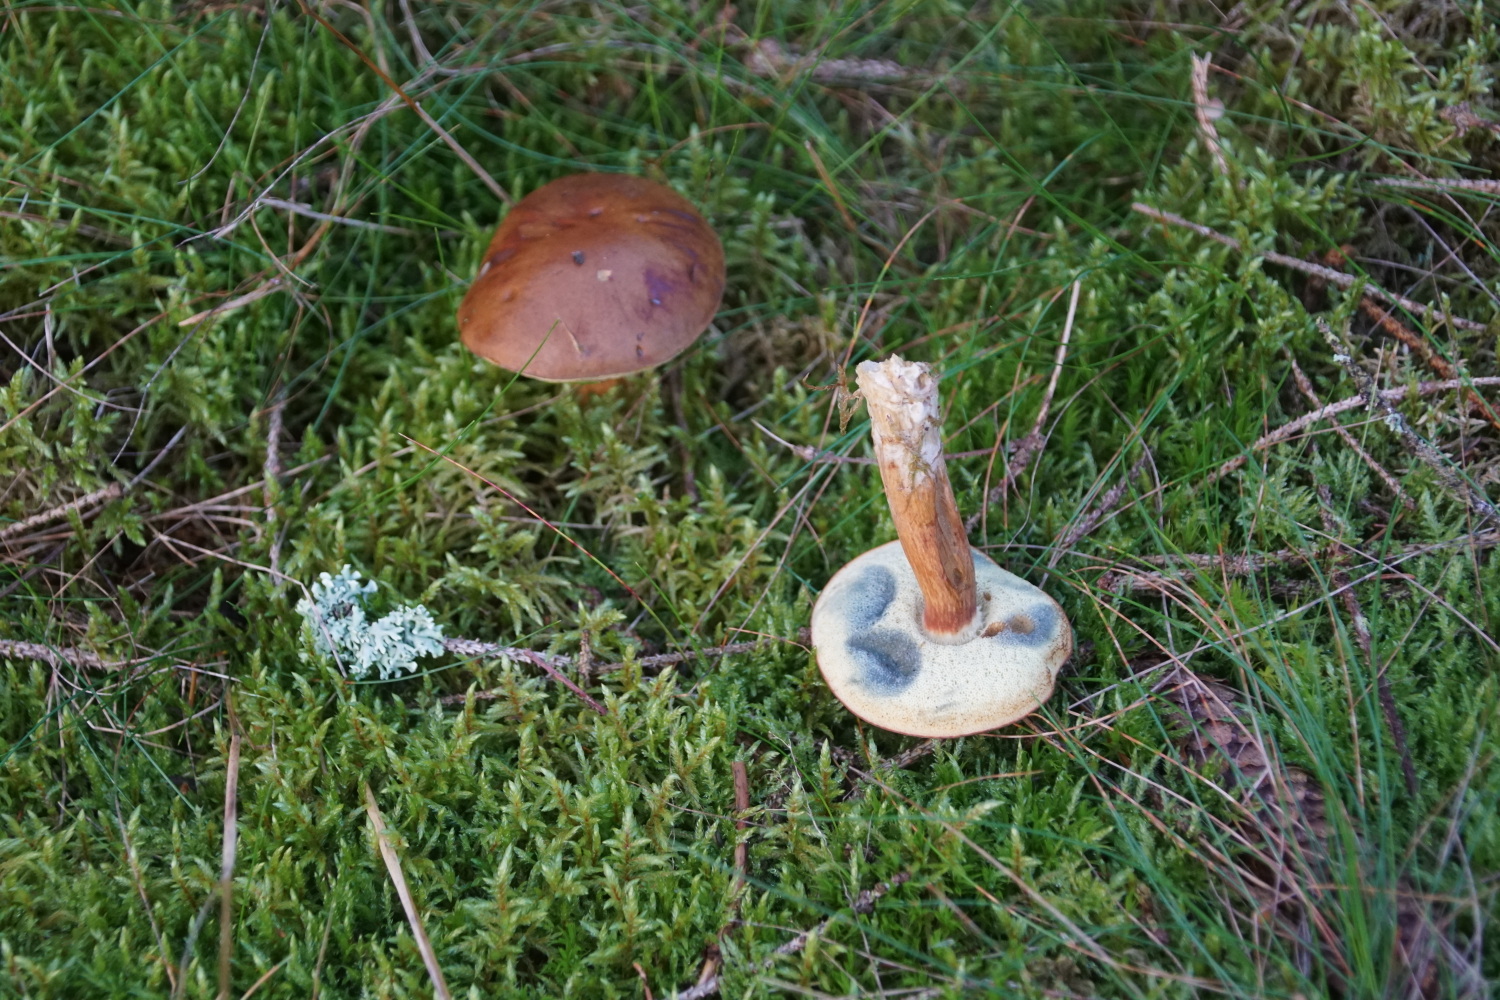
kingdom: Fungi
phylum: Basidiomycota
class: Agaricomycetes
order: Boletales
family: Boletaceae
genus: Imleria
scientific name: Imleria badia
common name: brunstokket rørhat
